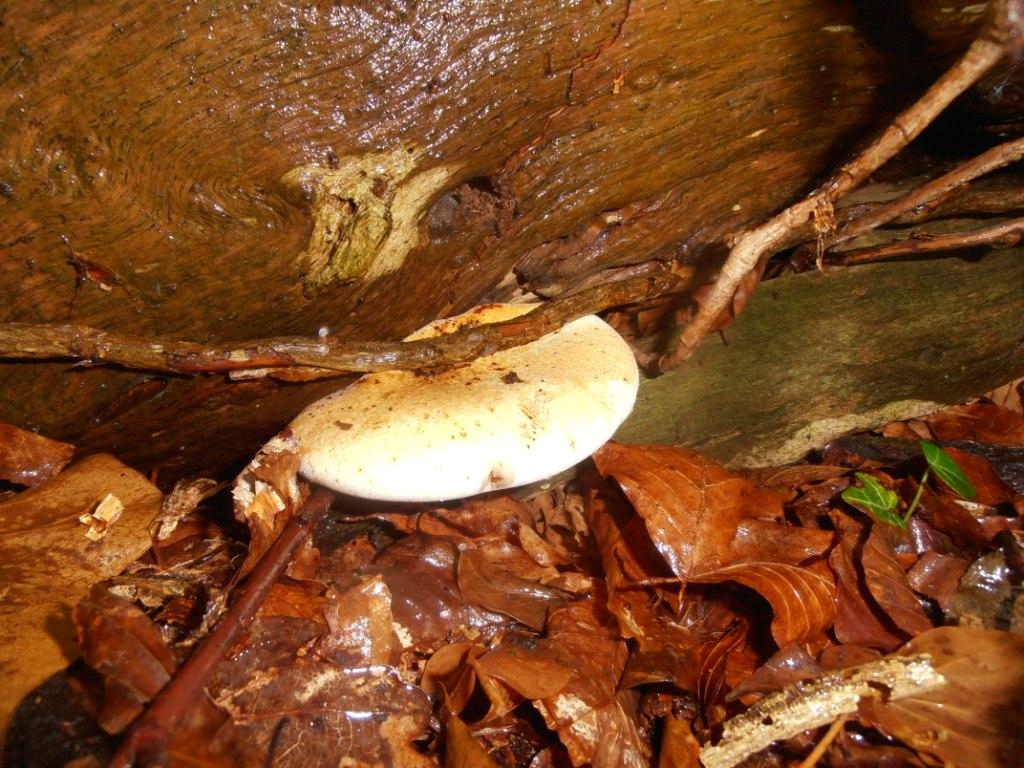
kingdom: Fungi
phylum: Basidiomycota
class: Agaricomycetes
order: Polyporales
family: Fomitopsidaceae
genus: Buglossoporus
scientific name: Buglossoporus quercinus
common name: egetunge
